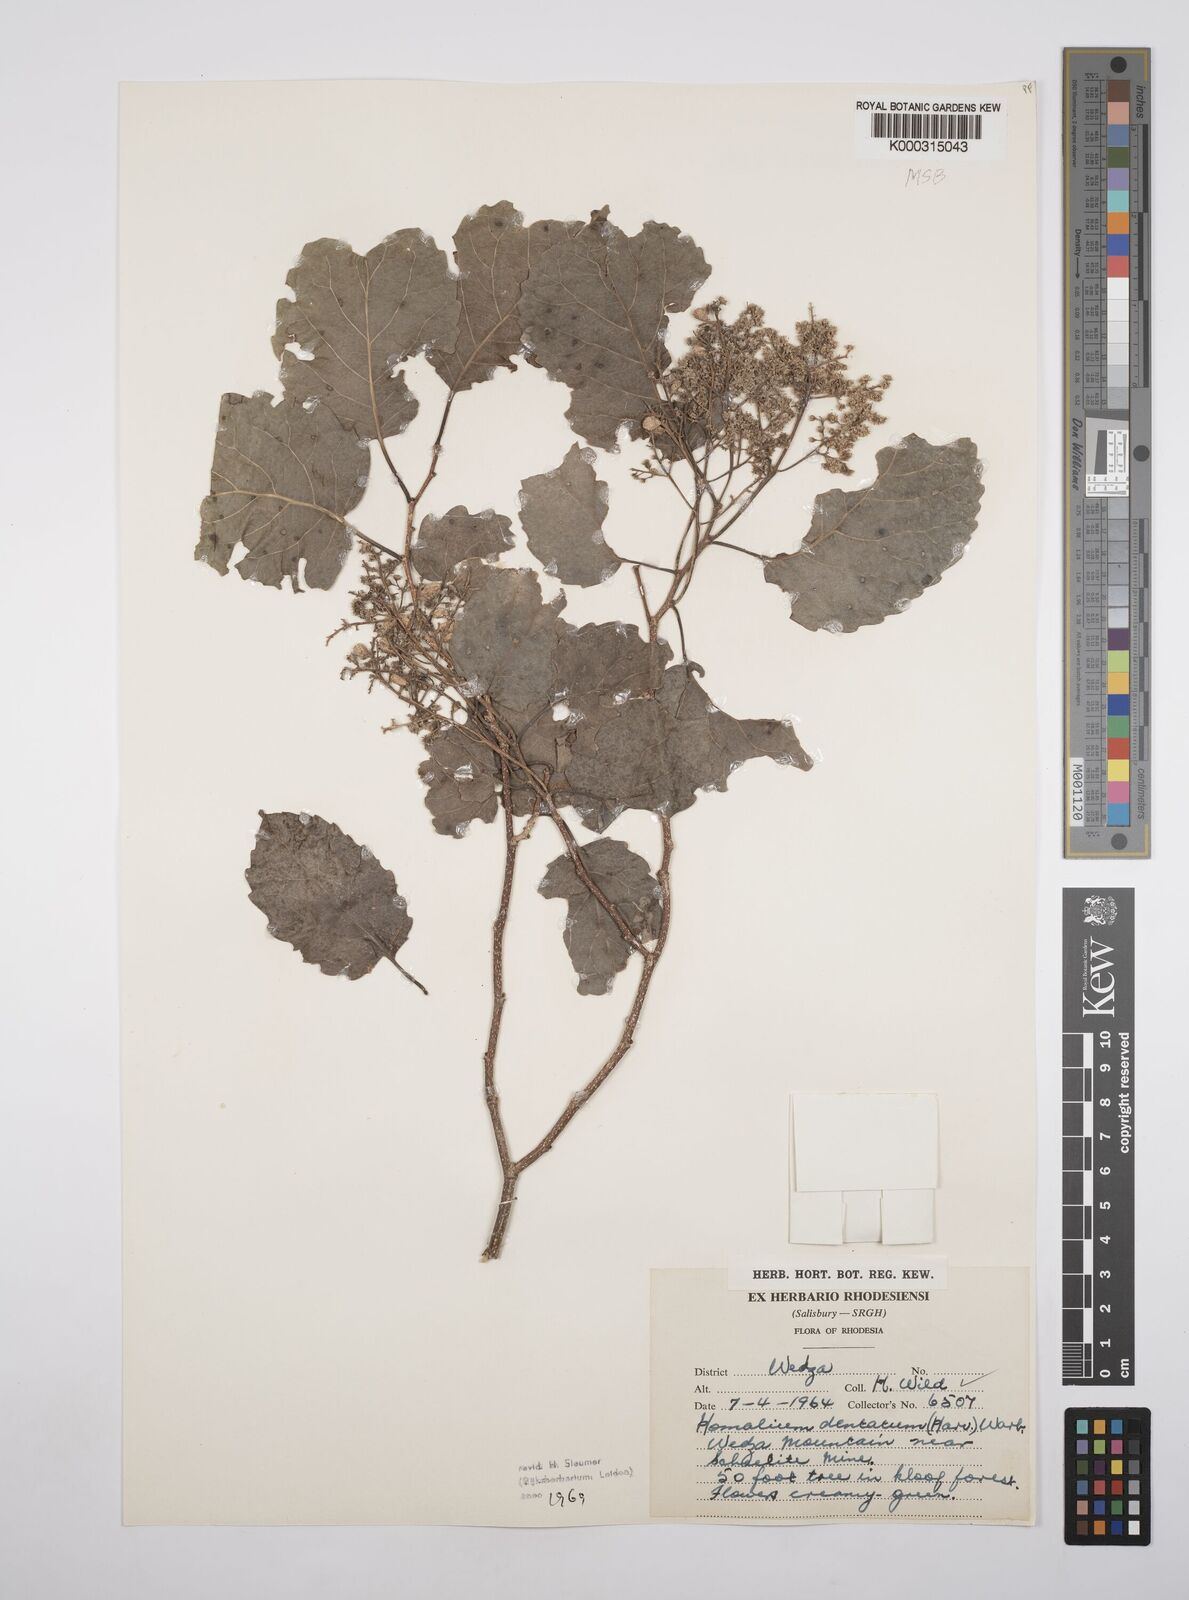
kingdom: Plantae
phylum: Tracheophyta
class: Magnoliopsida
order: Malpighiales
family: Salicaceae
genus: Homalium
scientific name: Homalium dentatum
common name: Brown ironwood
